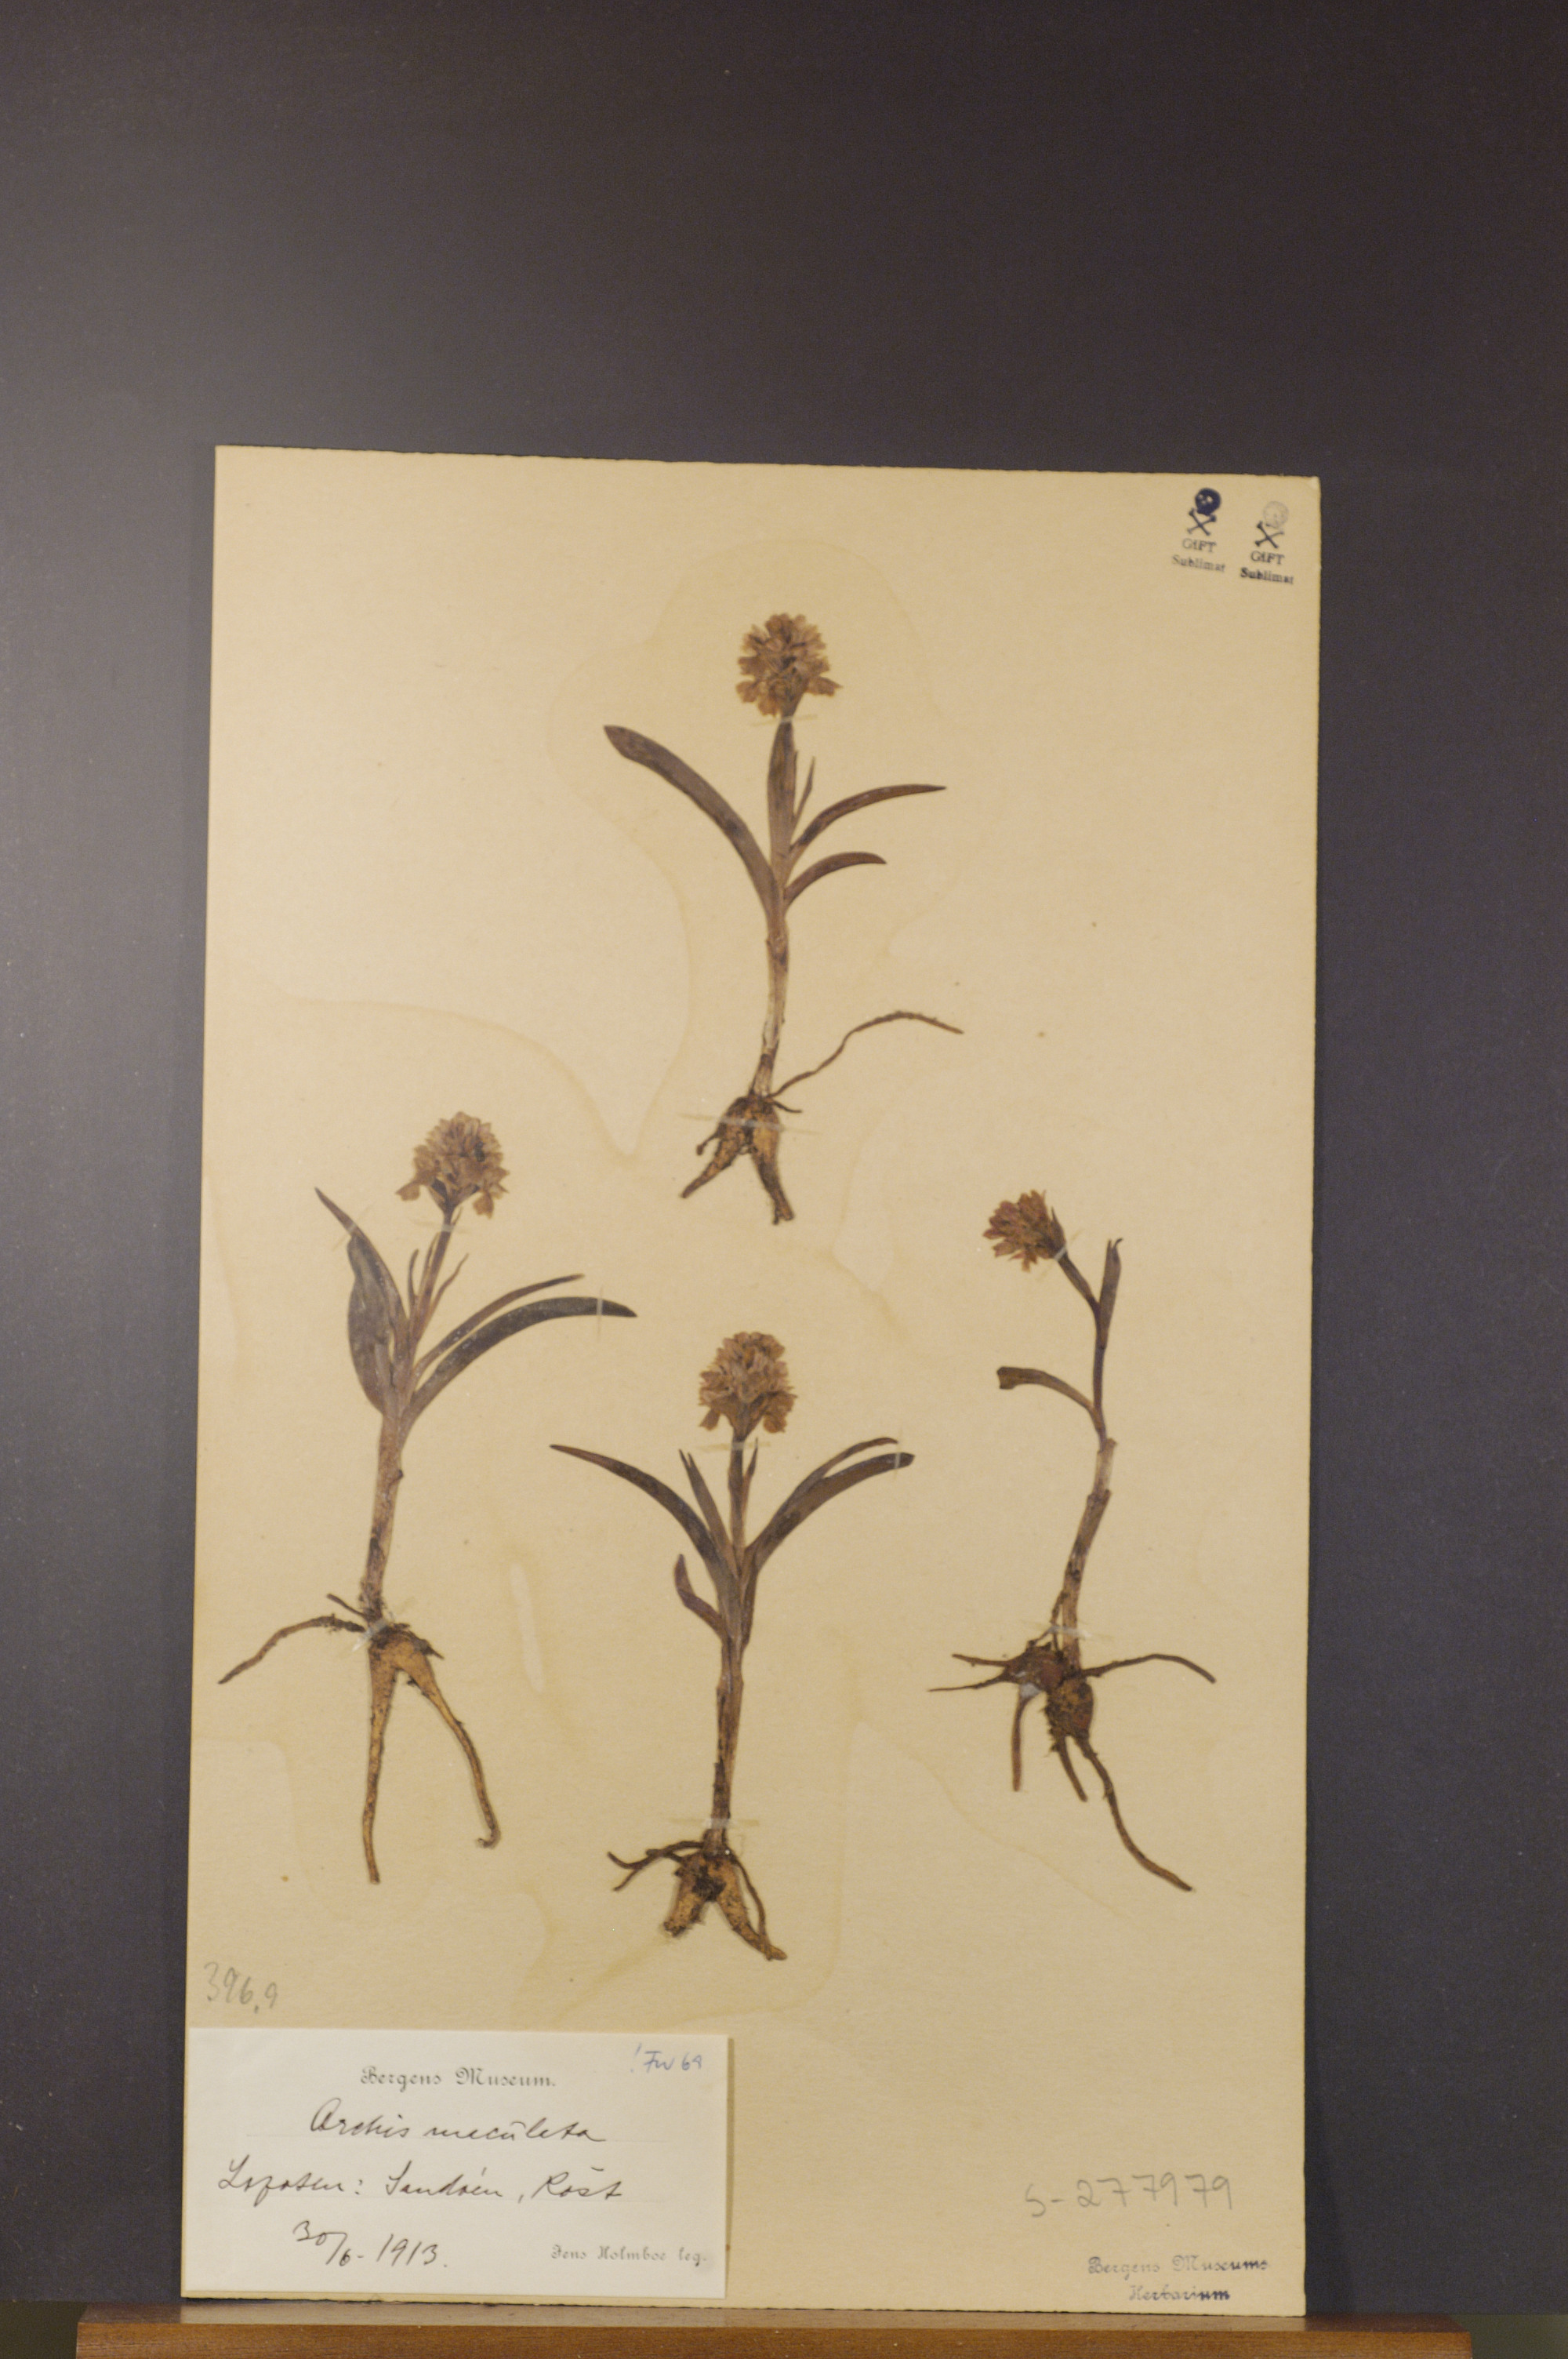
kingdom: Plantae
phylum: Tracheophyta
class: Liliopsida
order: Asparagales
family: Orchidaceae
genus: Dactylorhiza
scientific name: Dactylorhiza maculata
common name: Heath spotted-orchid
